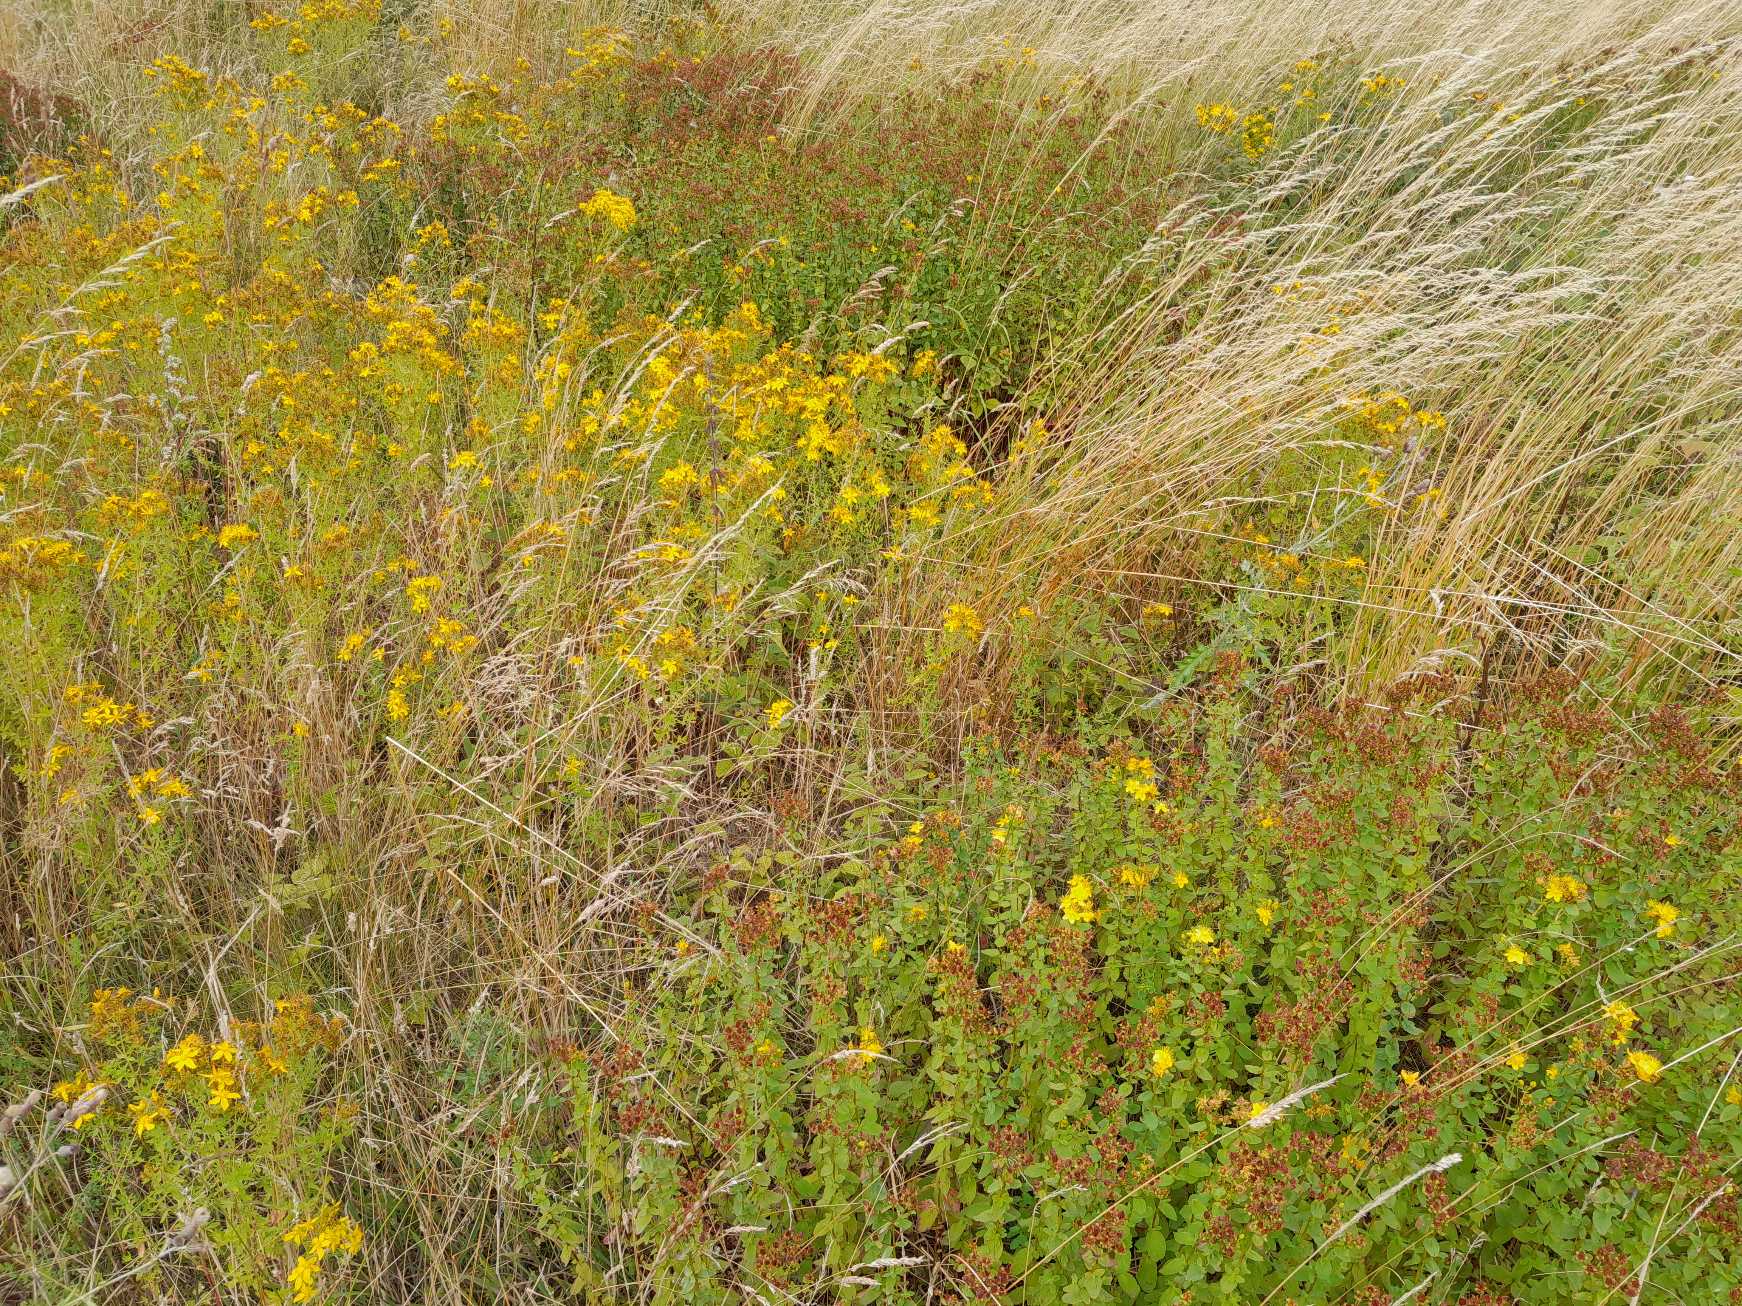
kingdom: Plantae
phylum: Tracheophyta
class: Magnoliopsida
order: Malpighiales
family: Hypericaceae
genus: Hypericum
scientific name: Hypericum
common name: Perikonslægten
